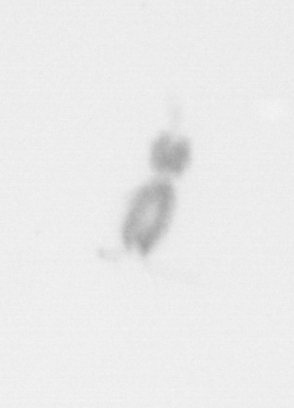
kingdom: Animalia
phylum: Arthropoda
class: Copepoda
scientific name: Copepoda
